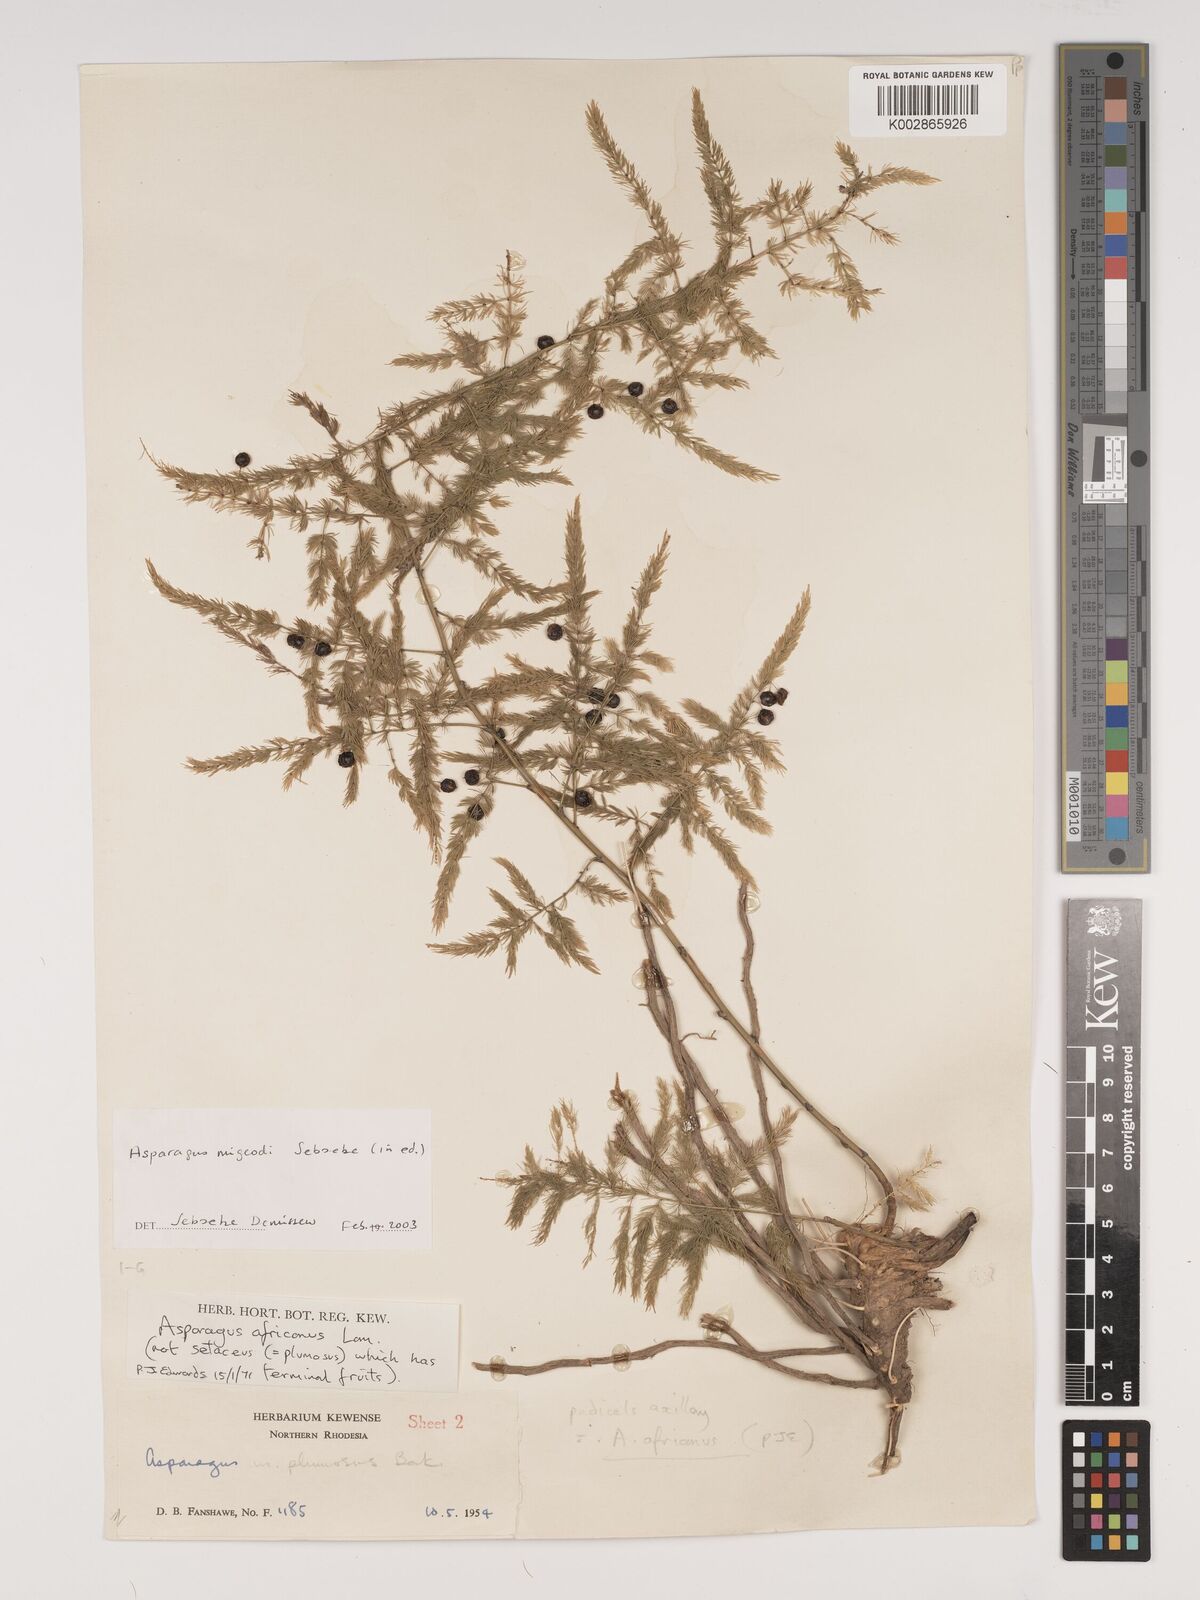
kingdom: Plantae
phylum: Tracheophyta
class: Liliopsida
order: Asparagales
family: Asparagaceae
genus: Asparagus
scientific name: Asparagus migeodii
